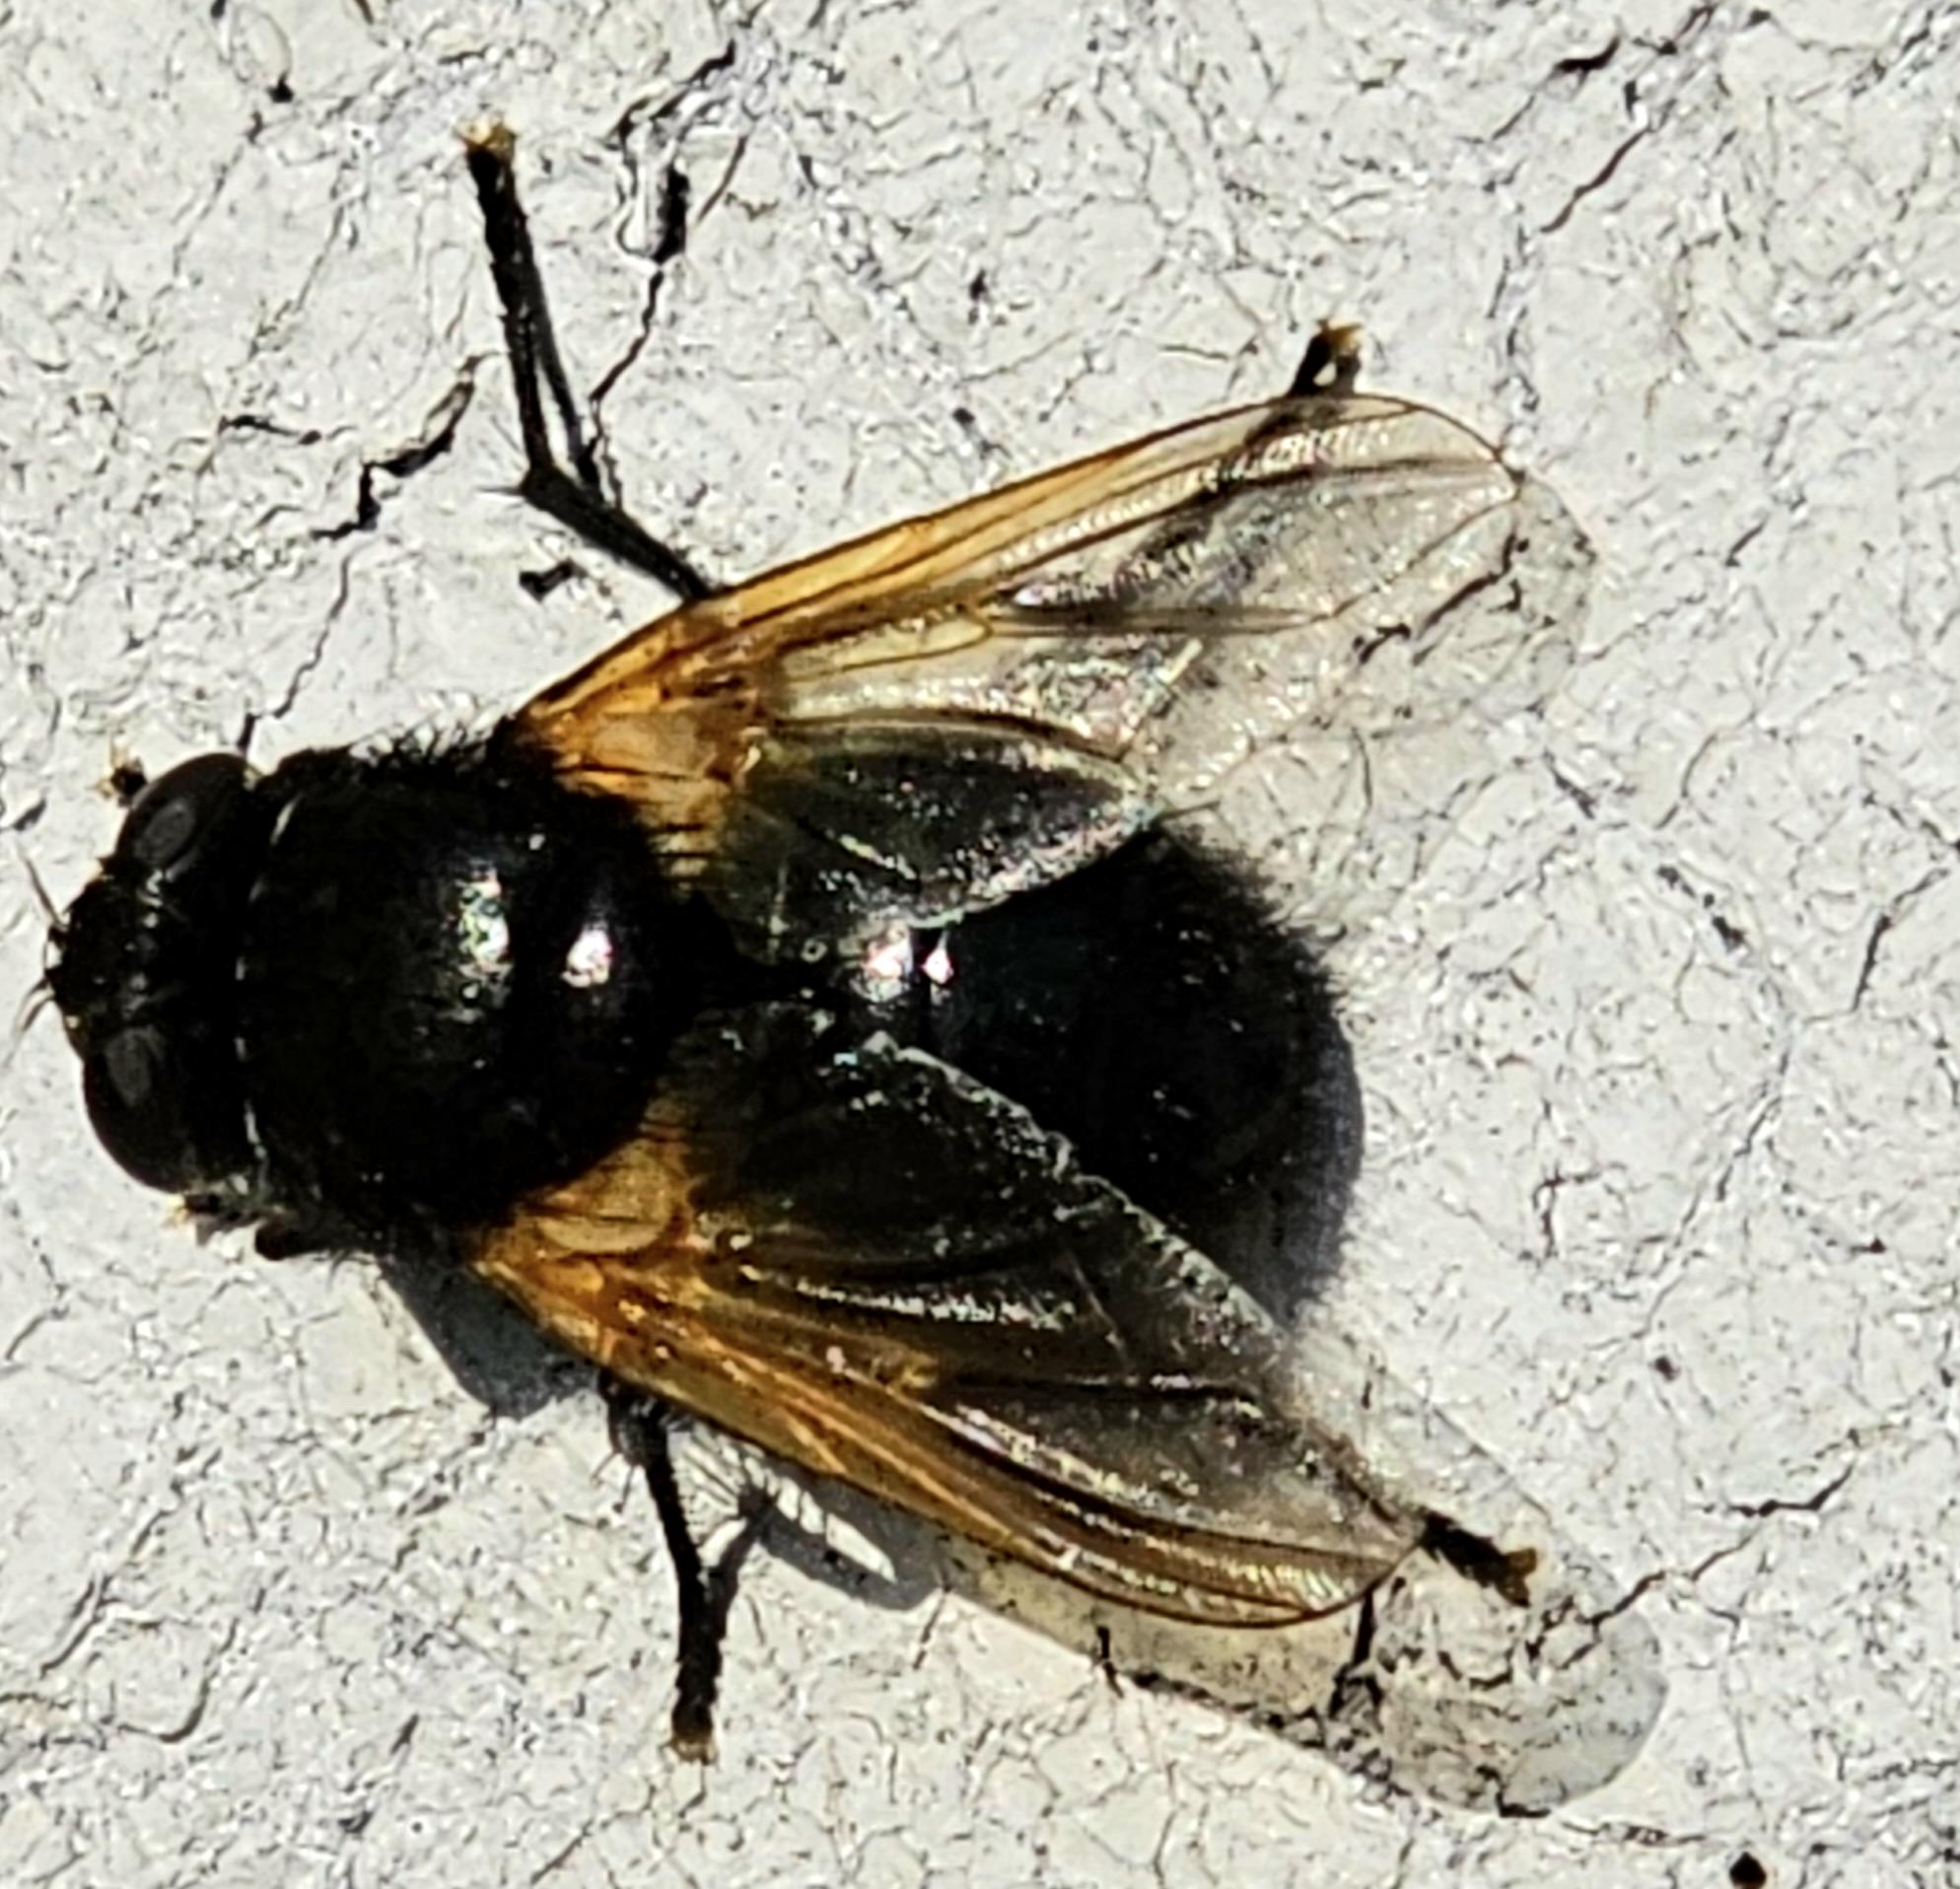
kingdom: Animalia
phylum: Arthropoda
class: Insecta
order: Diptera
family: Muscidae
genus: Mesembrina
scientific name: Mesembrina meridiana
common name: Gulvinget flue
